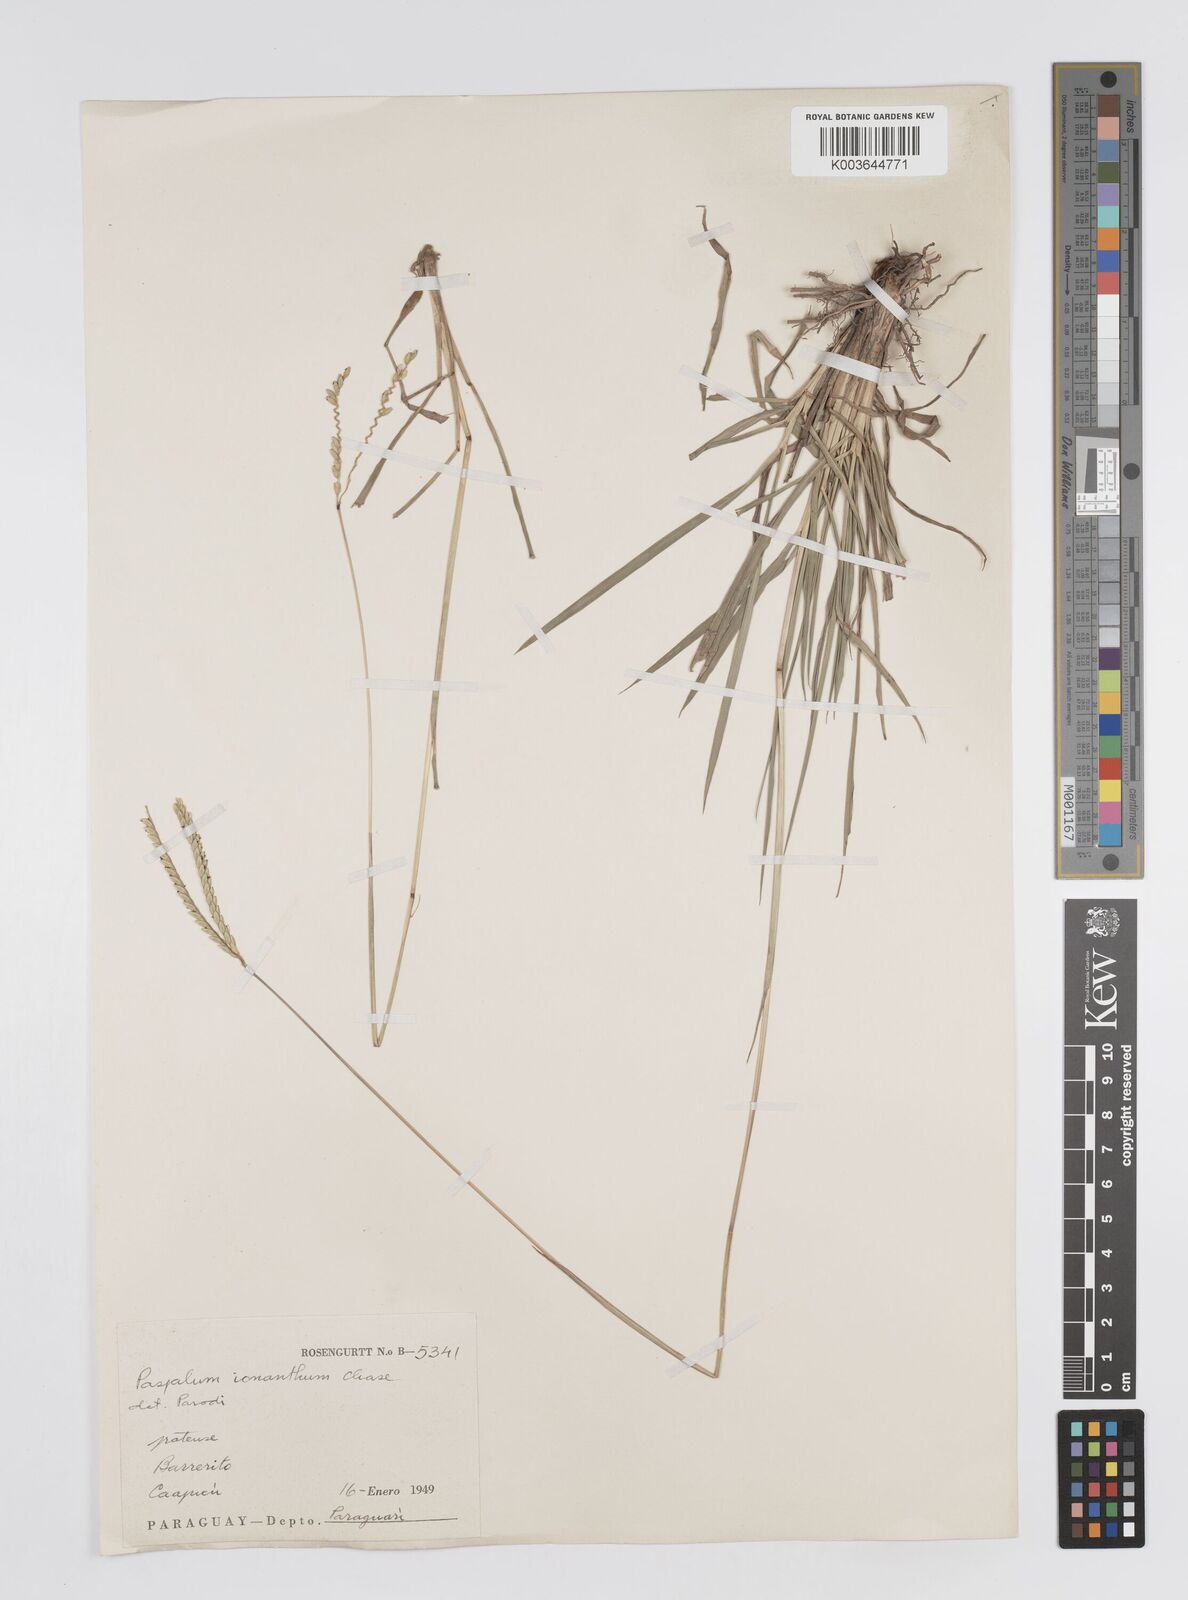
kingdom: Plantae
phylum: Tracheophyta
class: Liliopsida
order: Poales
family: Poaceae
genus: Paspalum
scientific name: Paspalum erianthum
